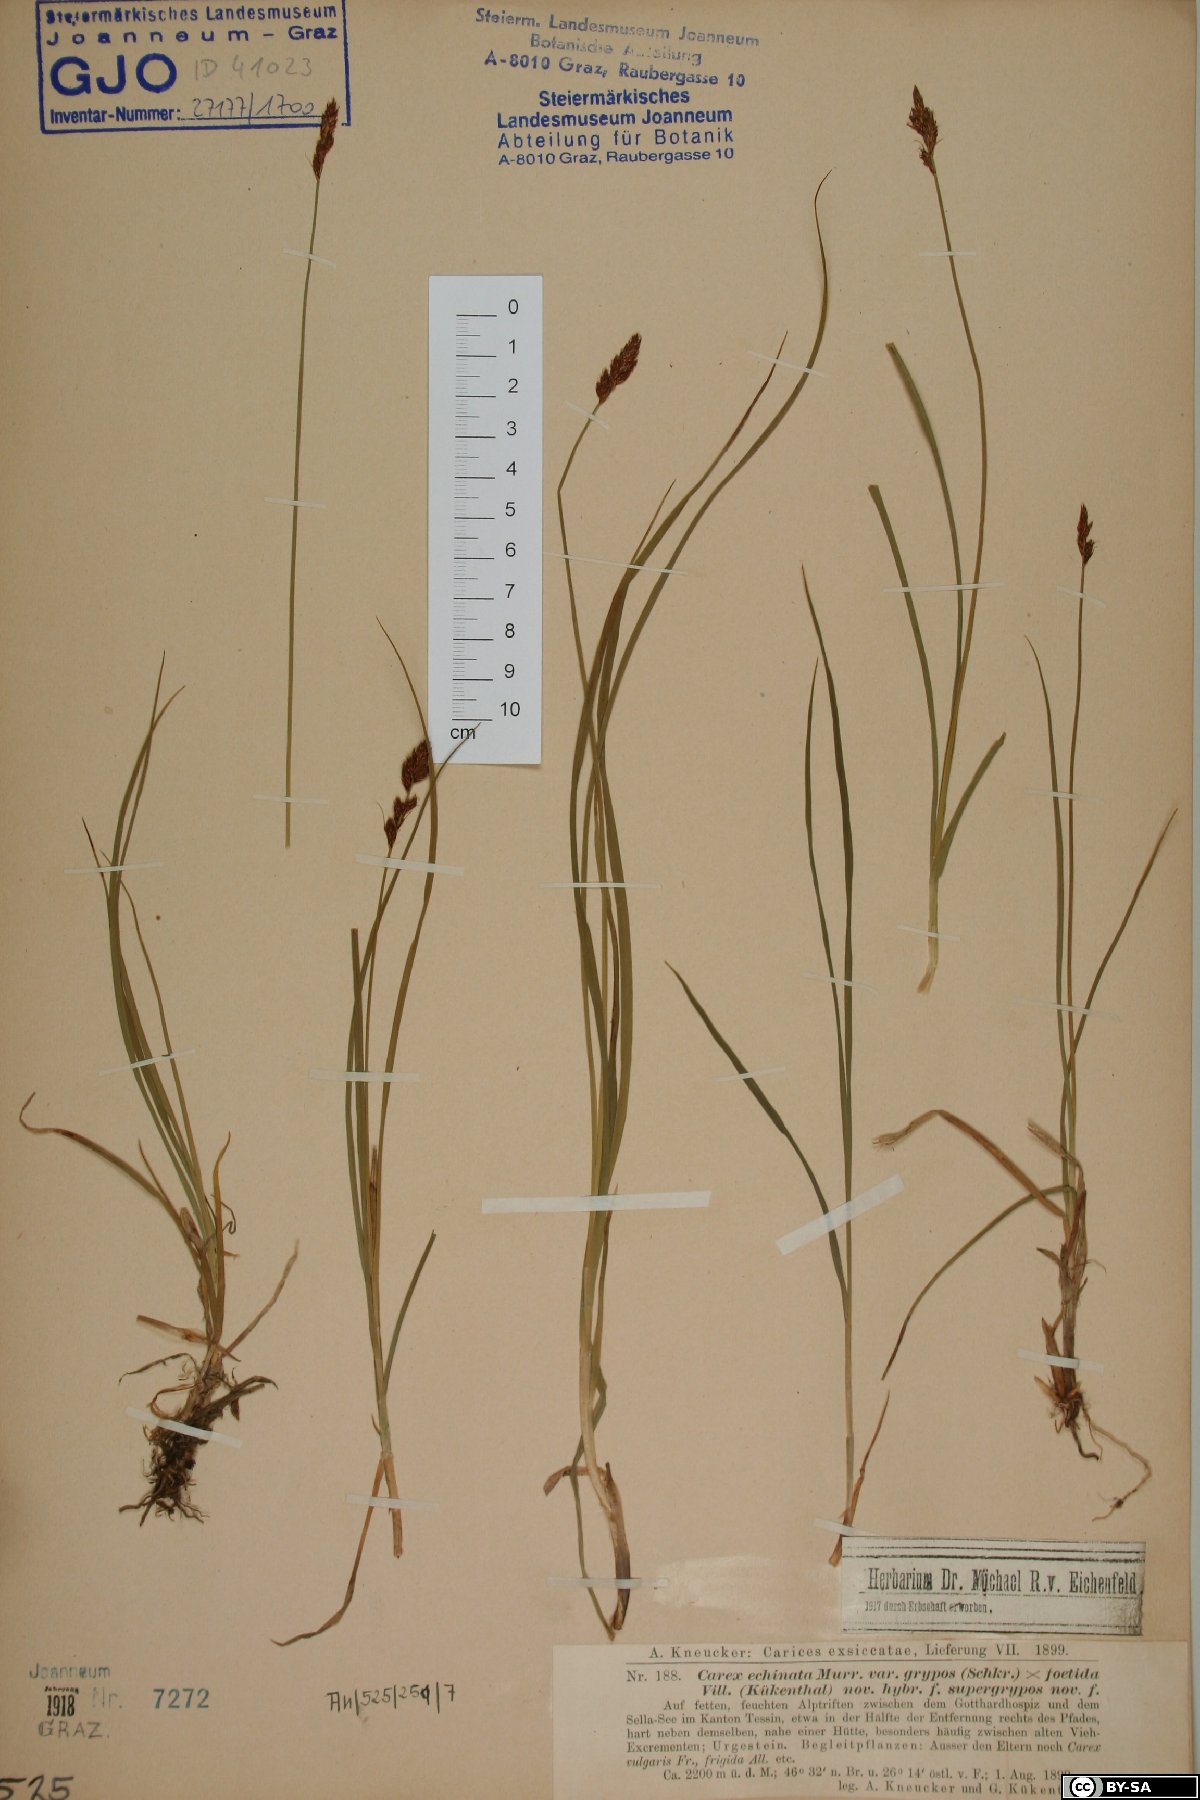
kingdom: Plantae
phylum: Tracheophyta
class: Liliopsida
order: Poales
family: Cyperaceae
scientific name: Cyperaceae
